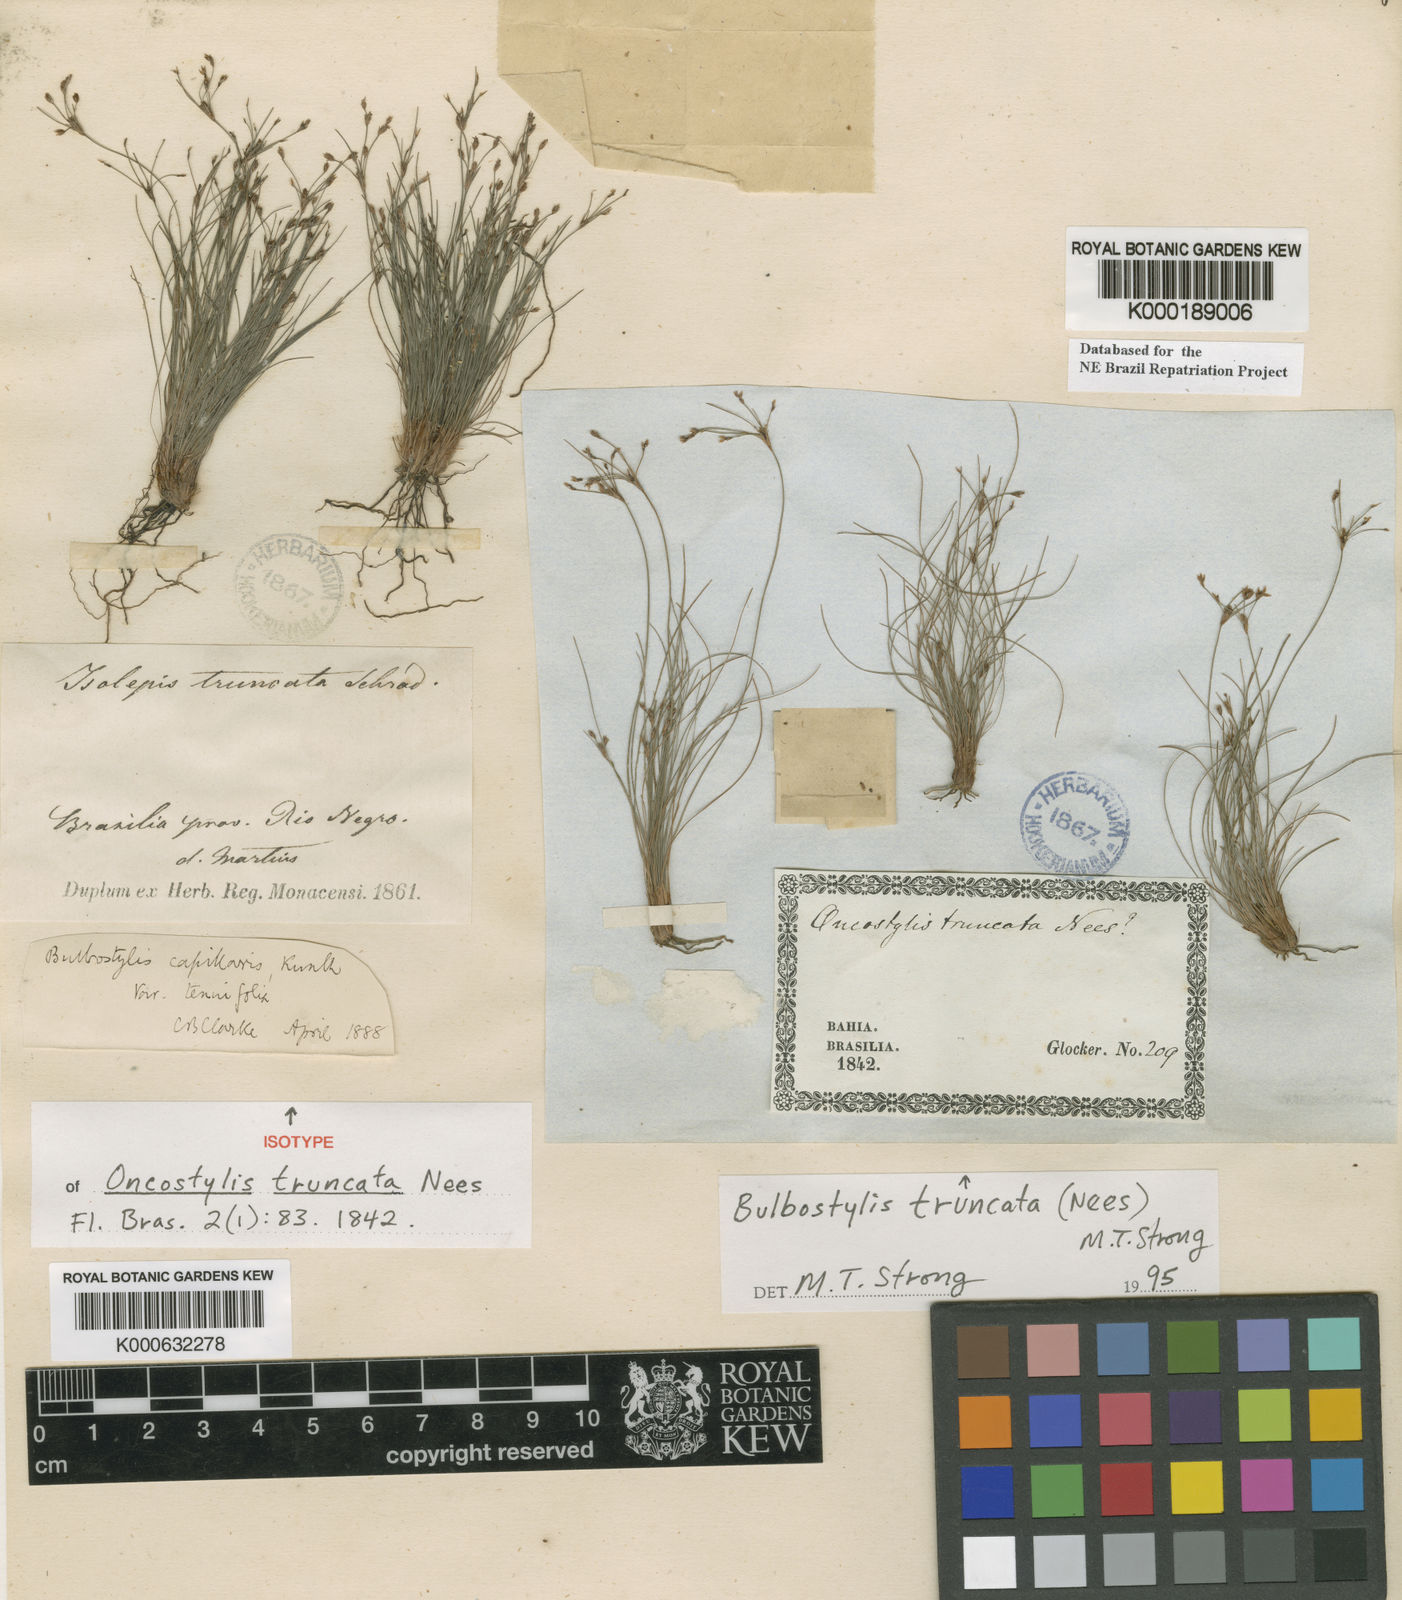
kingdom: Plantae
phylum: Tracheophyta
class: Liliopsida
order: Poales
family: Cyperaceae
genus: Bulbostylis
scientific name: Bulbostylis truncata
